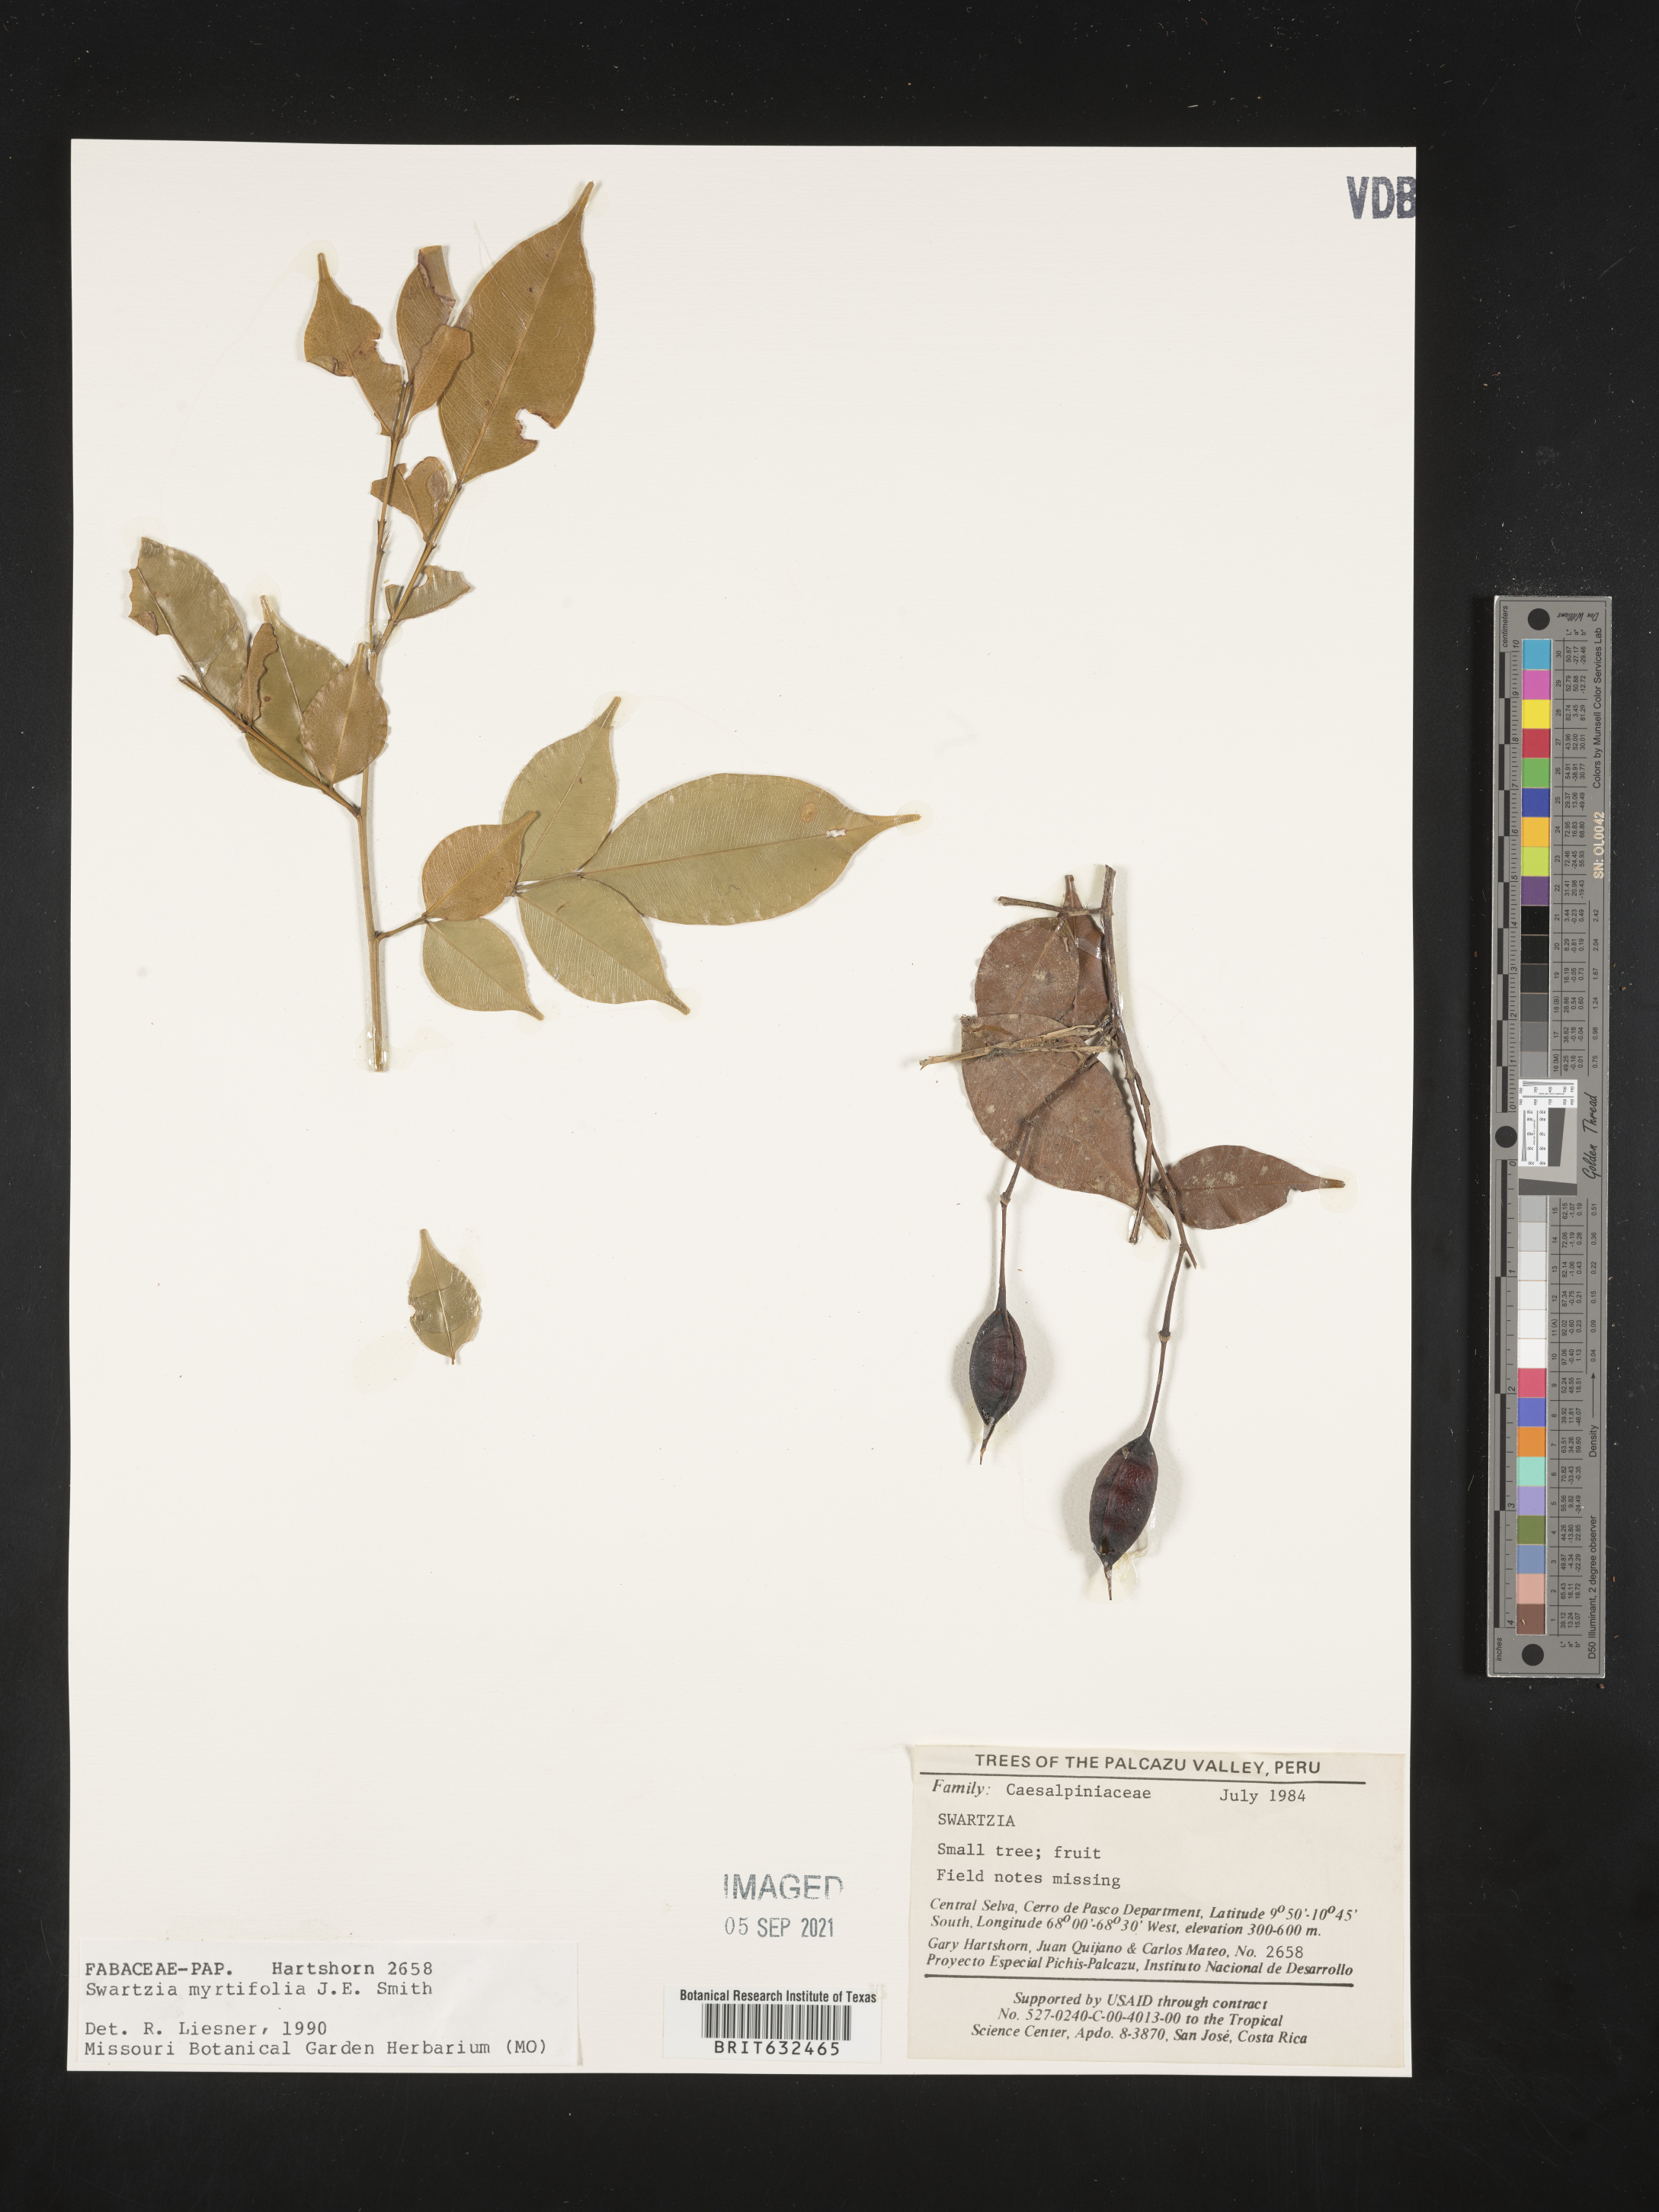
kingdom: Plantae
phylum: Tracheophyta
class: Magnoliopsida
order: Fabales
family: Fabaceae
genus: Swartzia
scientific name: Swartzia
